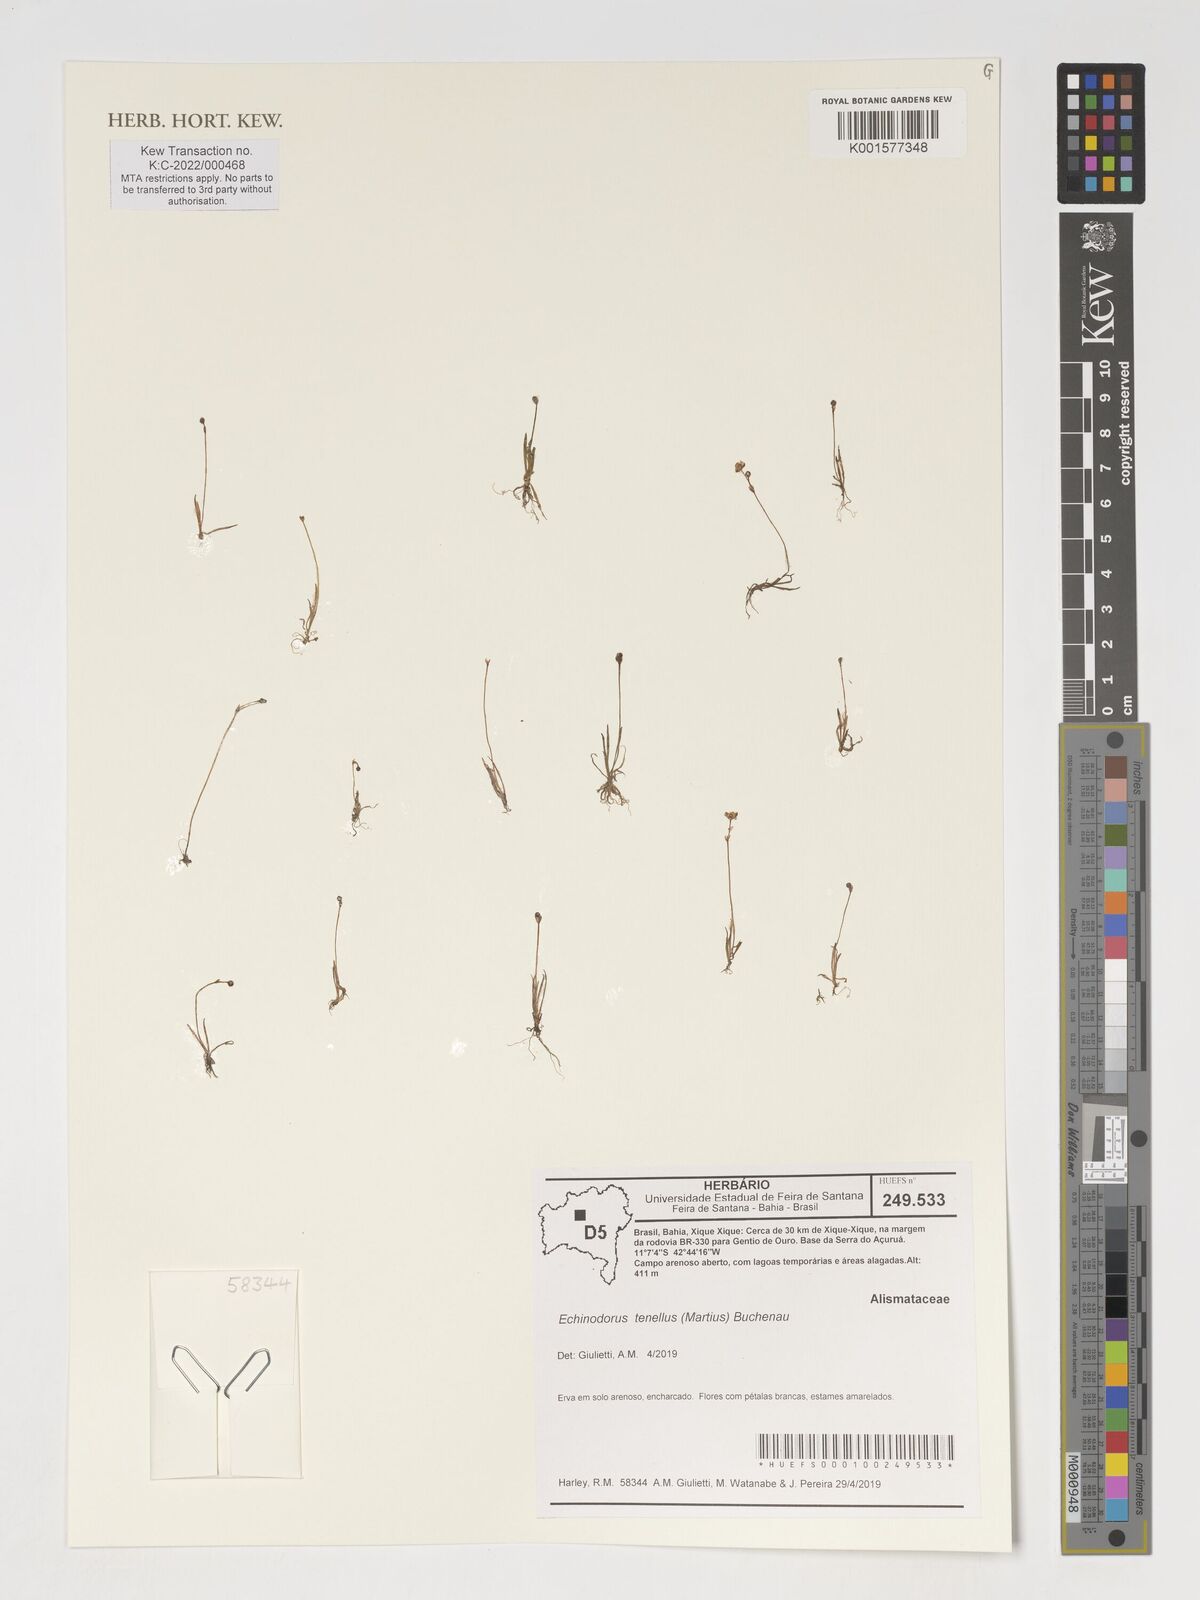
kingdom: Plantae
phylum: Tracheophyta
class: Liliopsida
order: Alismatales
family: Alismataceae
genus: Helanthium
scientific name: Helanthium tenellum
